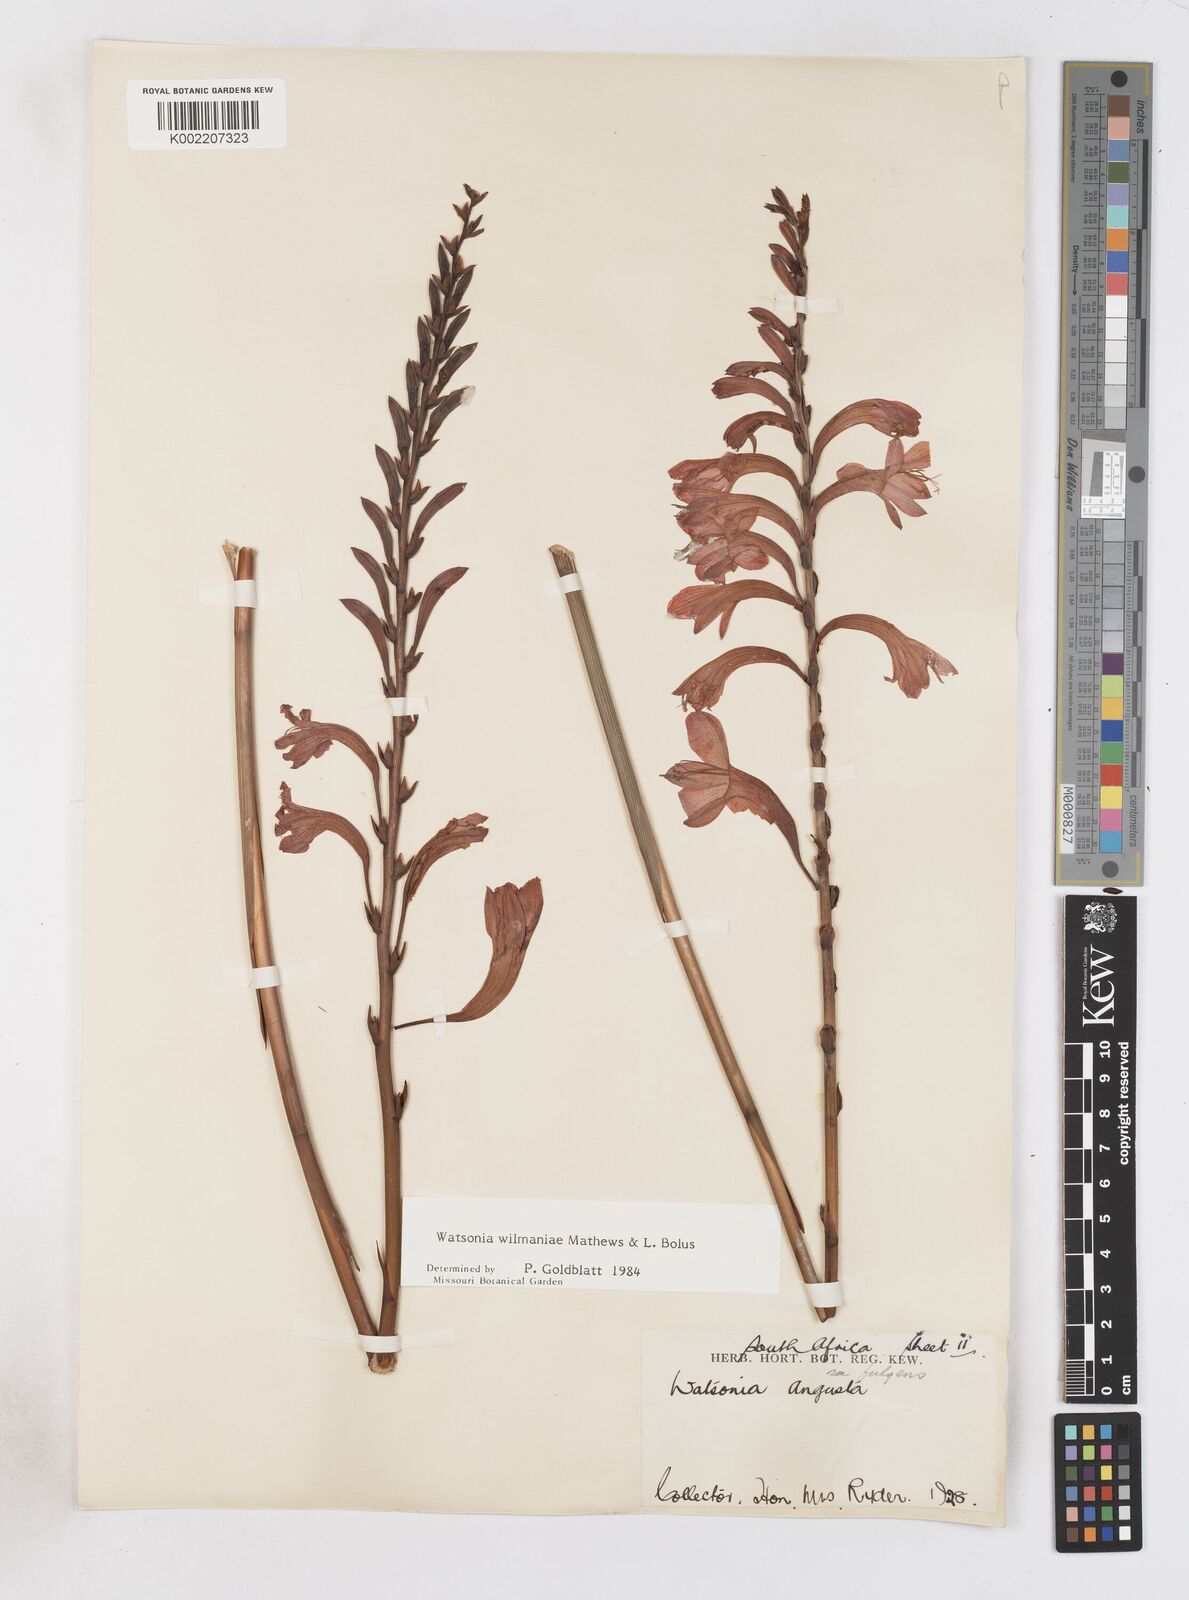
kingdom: Plantae
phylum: Tracheophyta
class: Liliopsida
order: Asparagales
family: Iridaceae
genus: Watsonia
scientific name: Watsonia wilmaniae
